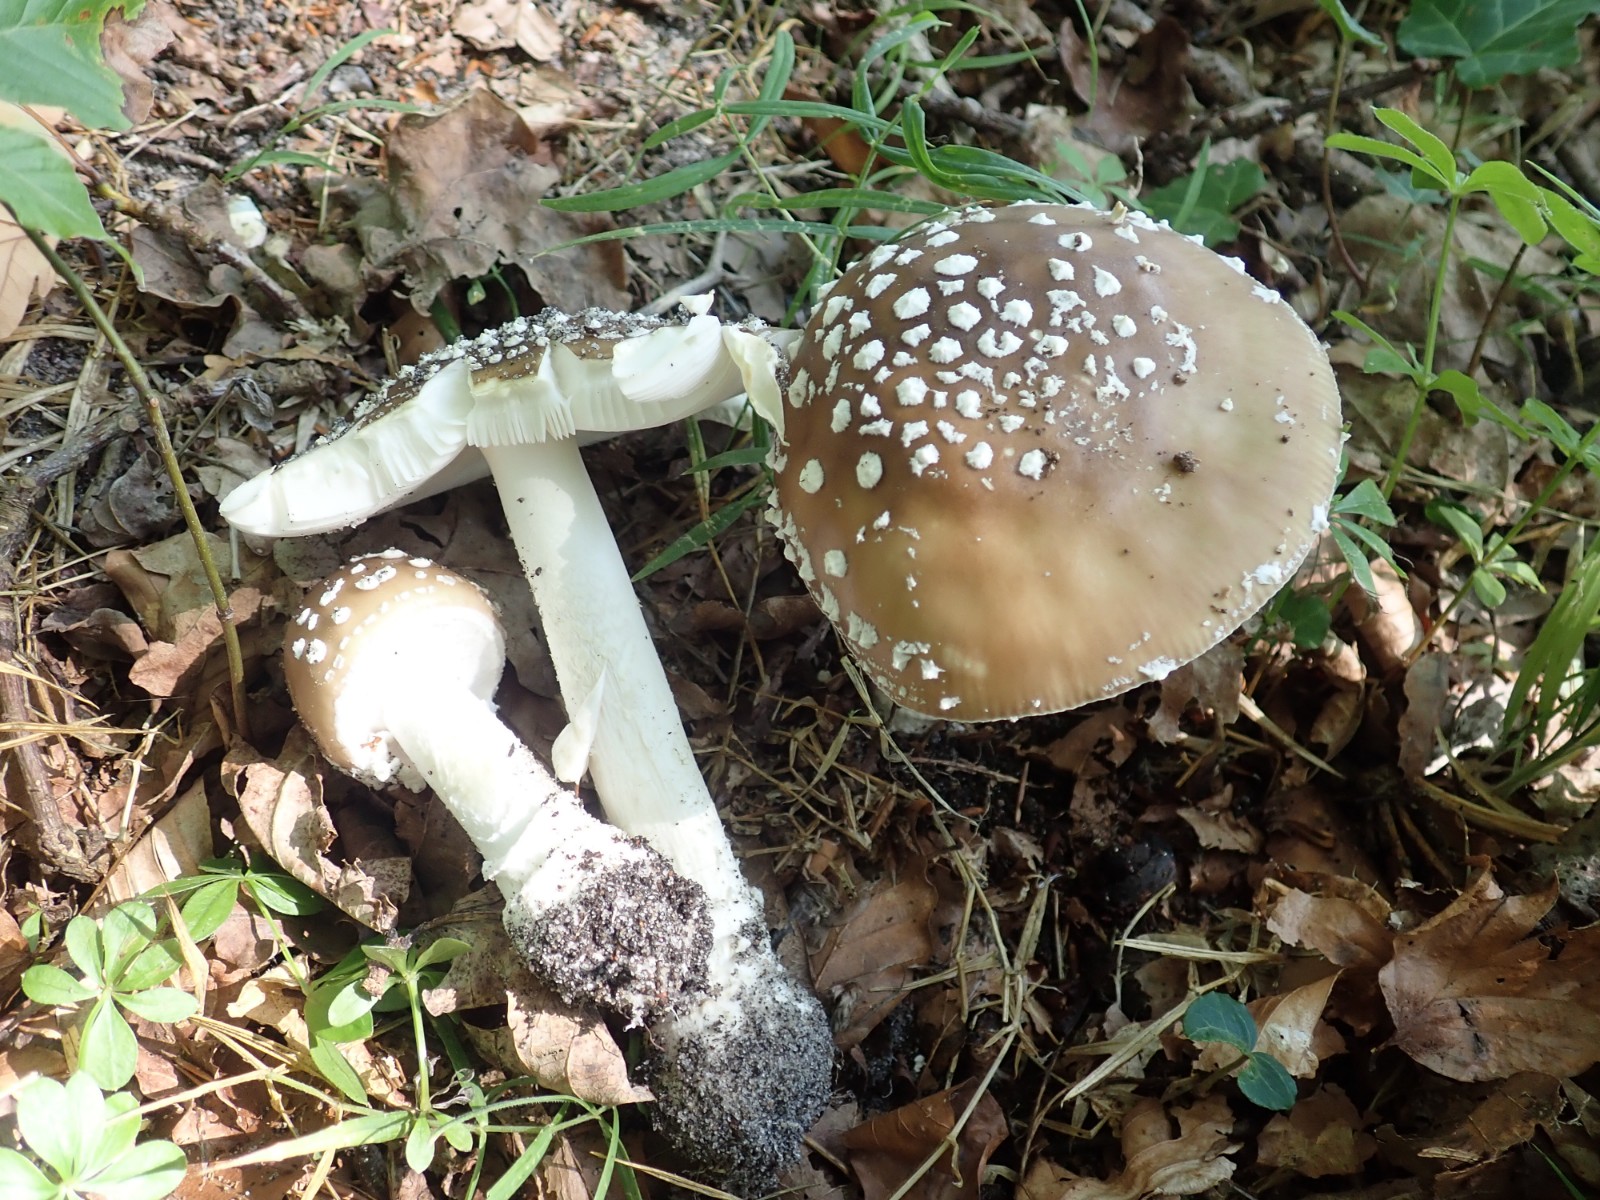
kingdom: Fungi
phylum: Basidiomycota
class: Agaricomycetes
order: Agaricales
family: Amanitaceae
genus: Amanita
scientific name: Amanita pantherina
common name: panter-fluesvamp
